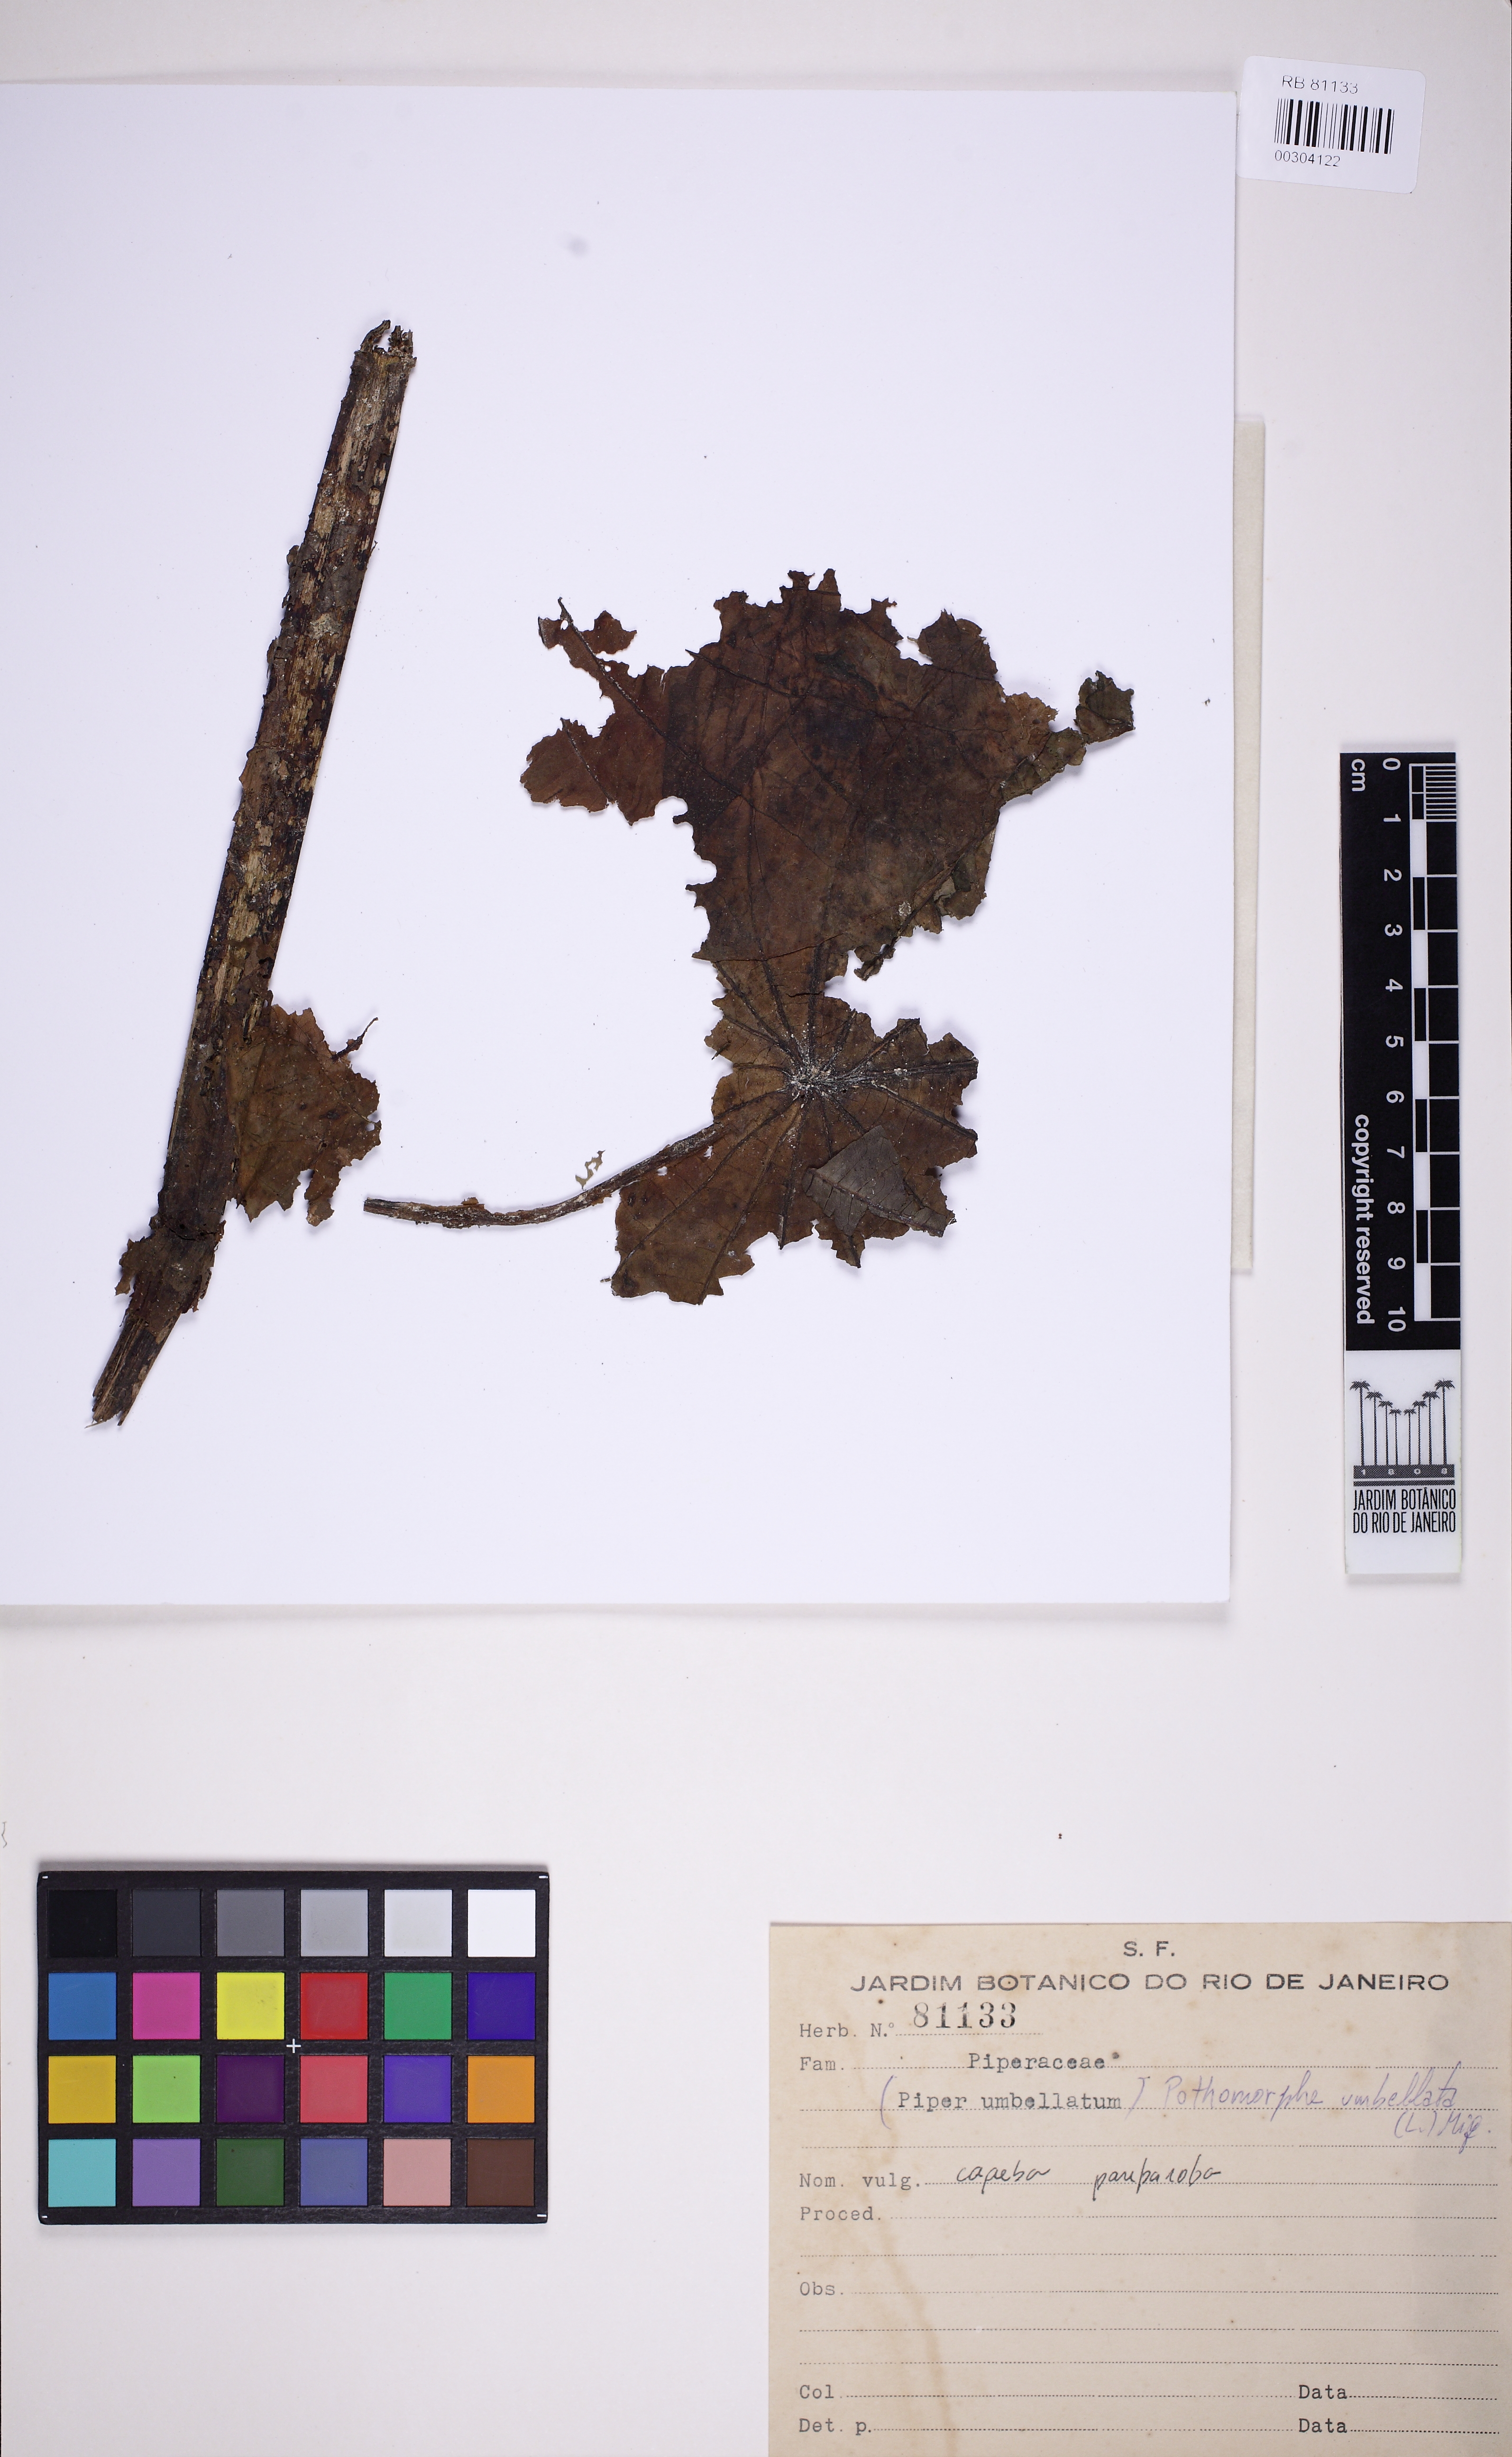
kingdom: Plantae
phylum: Tracheophyta
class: Magnoliopsida
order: Piperales
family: Piperaceae
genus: Piper
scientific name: Piper peltatum
